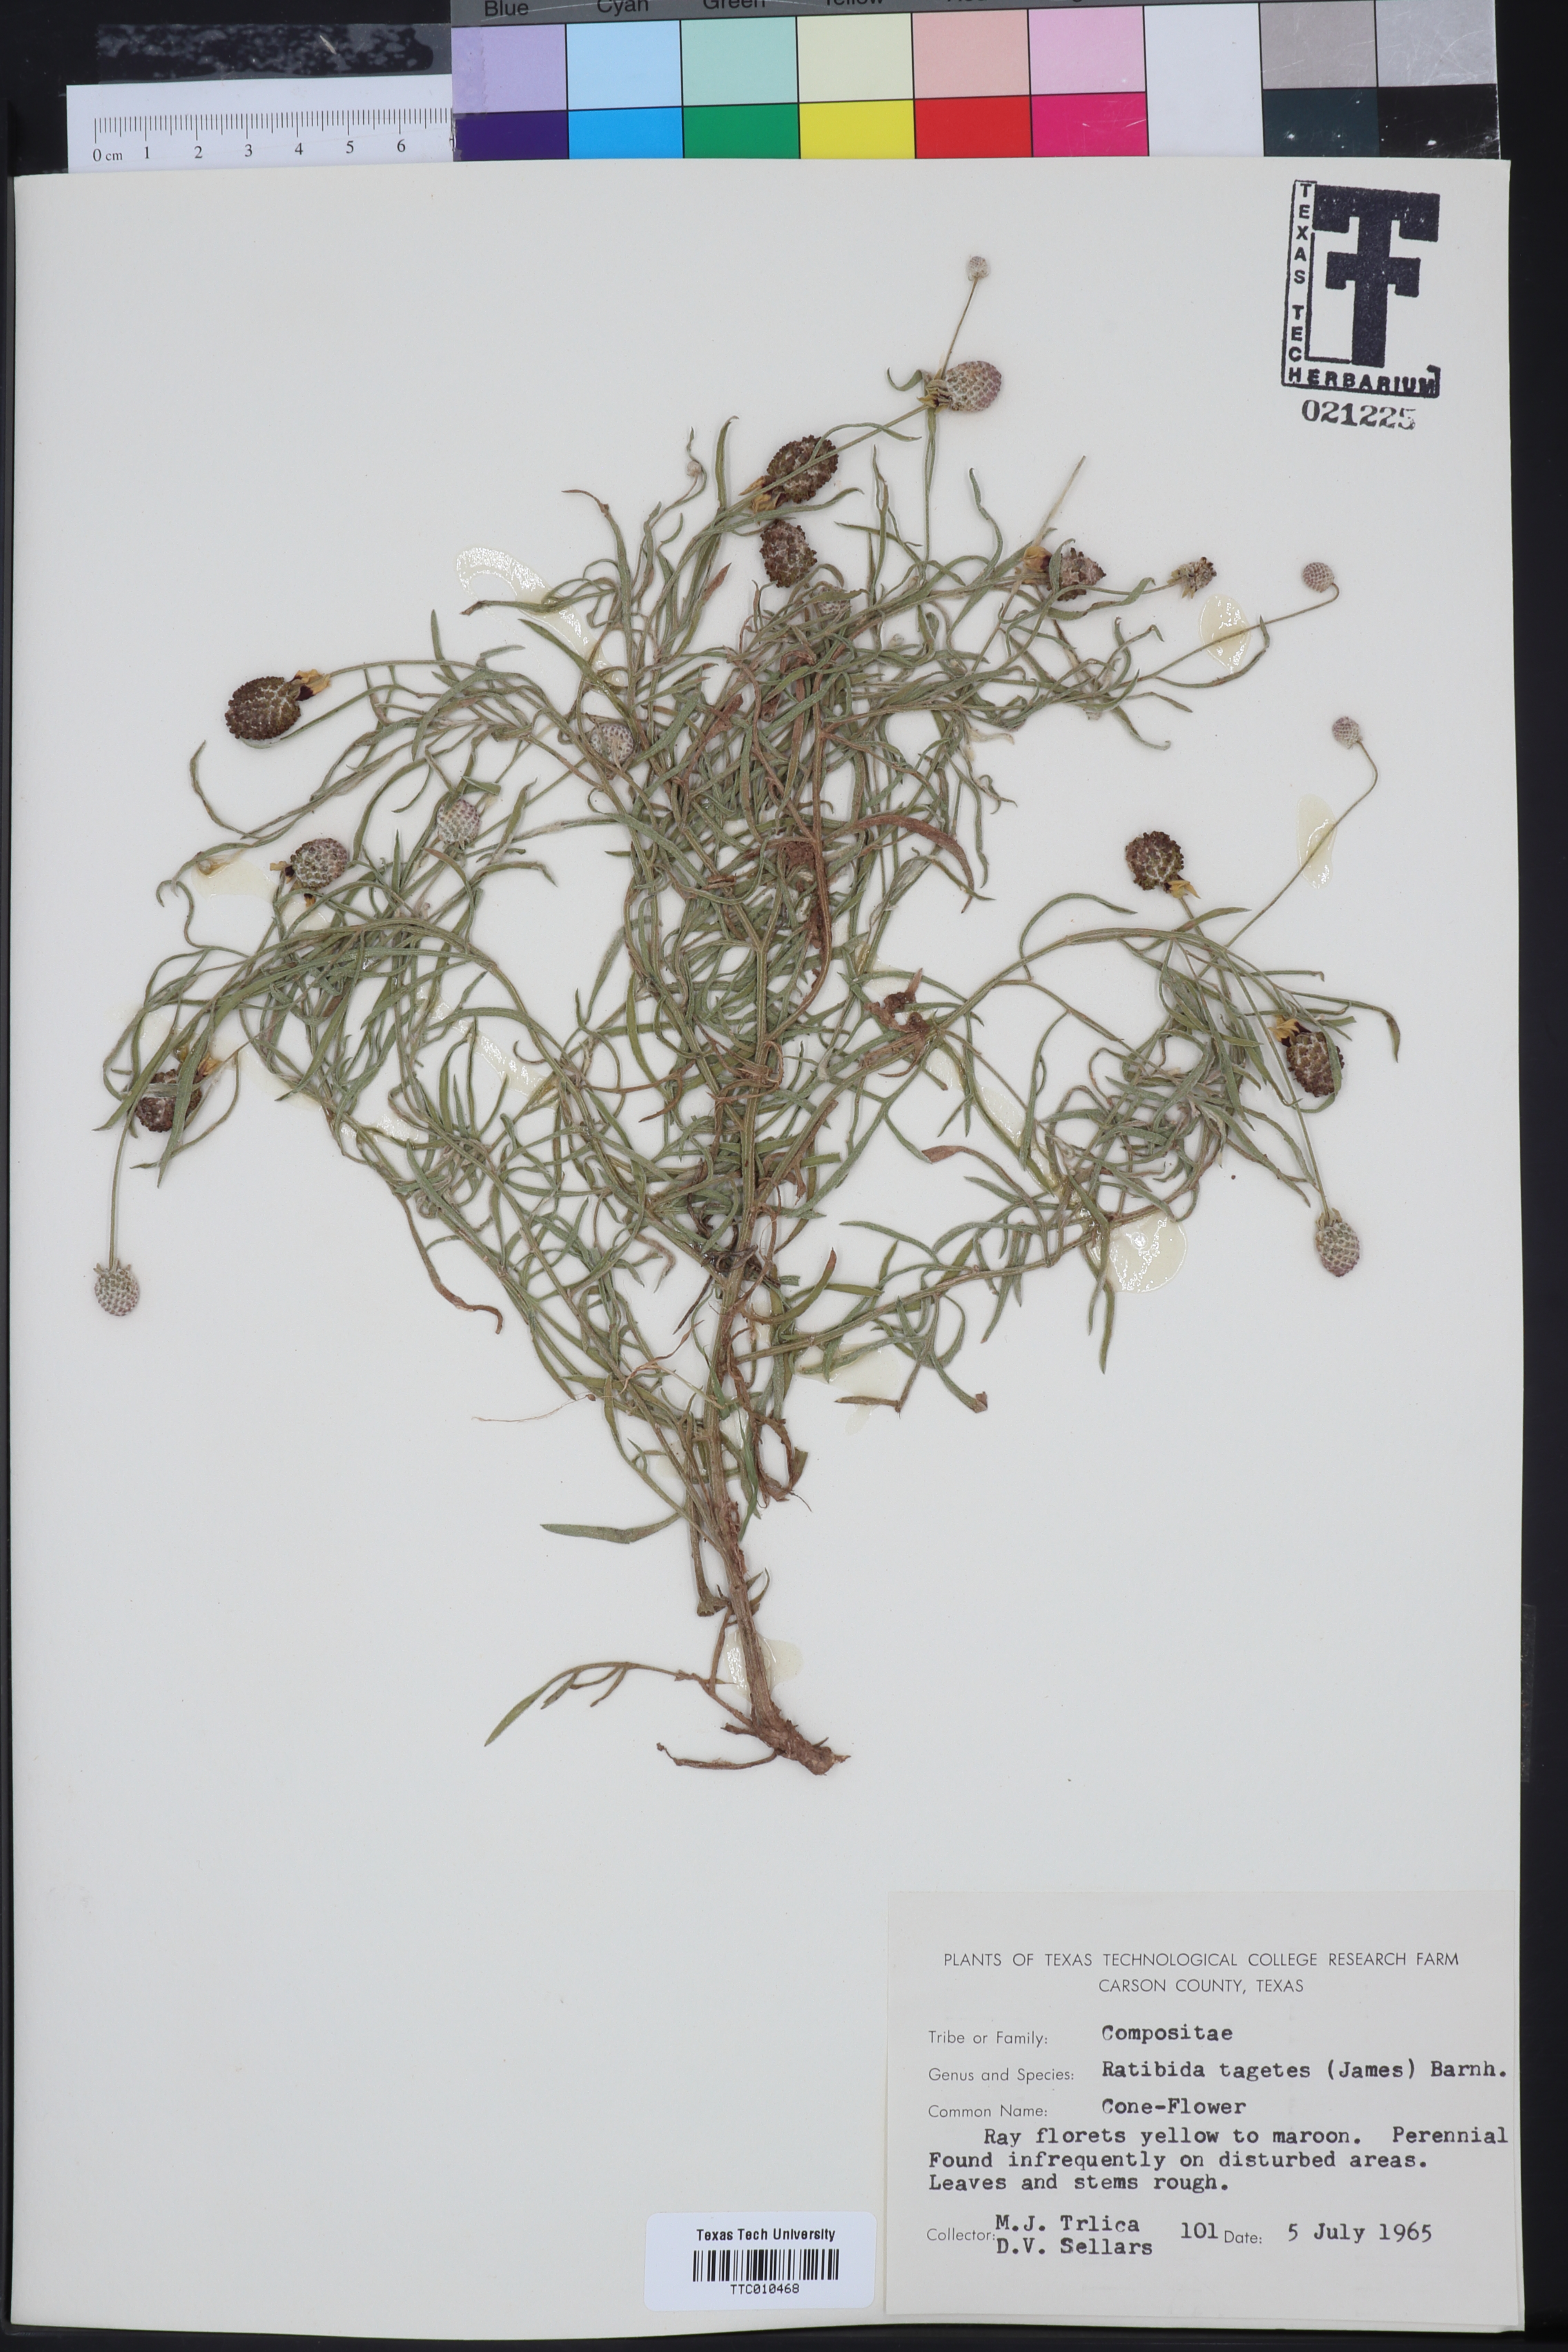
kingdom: Plantae
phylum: Tracheophyta
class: Magnoliopsida
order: Asterales
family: Asteraceae
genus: Ratibida
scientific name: Ratibida tagetes
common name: Green mexican-hat
